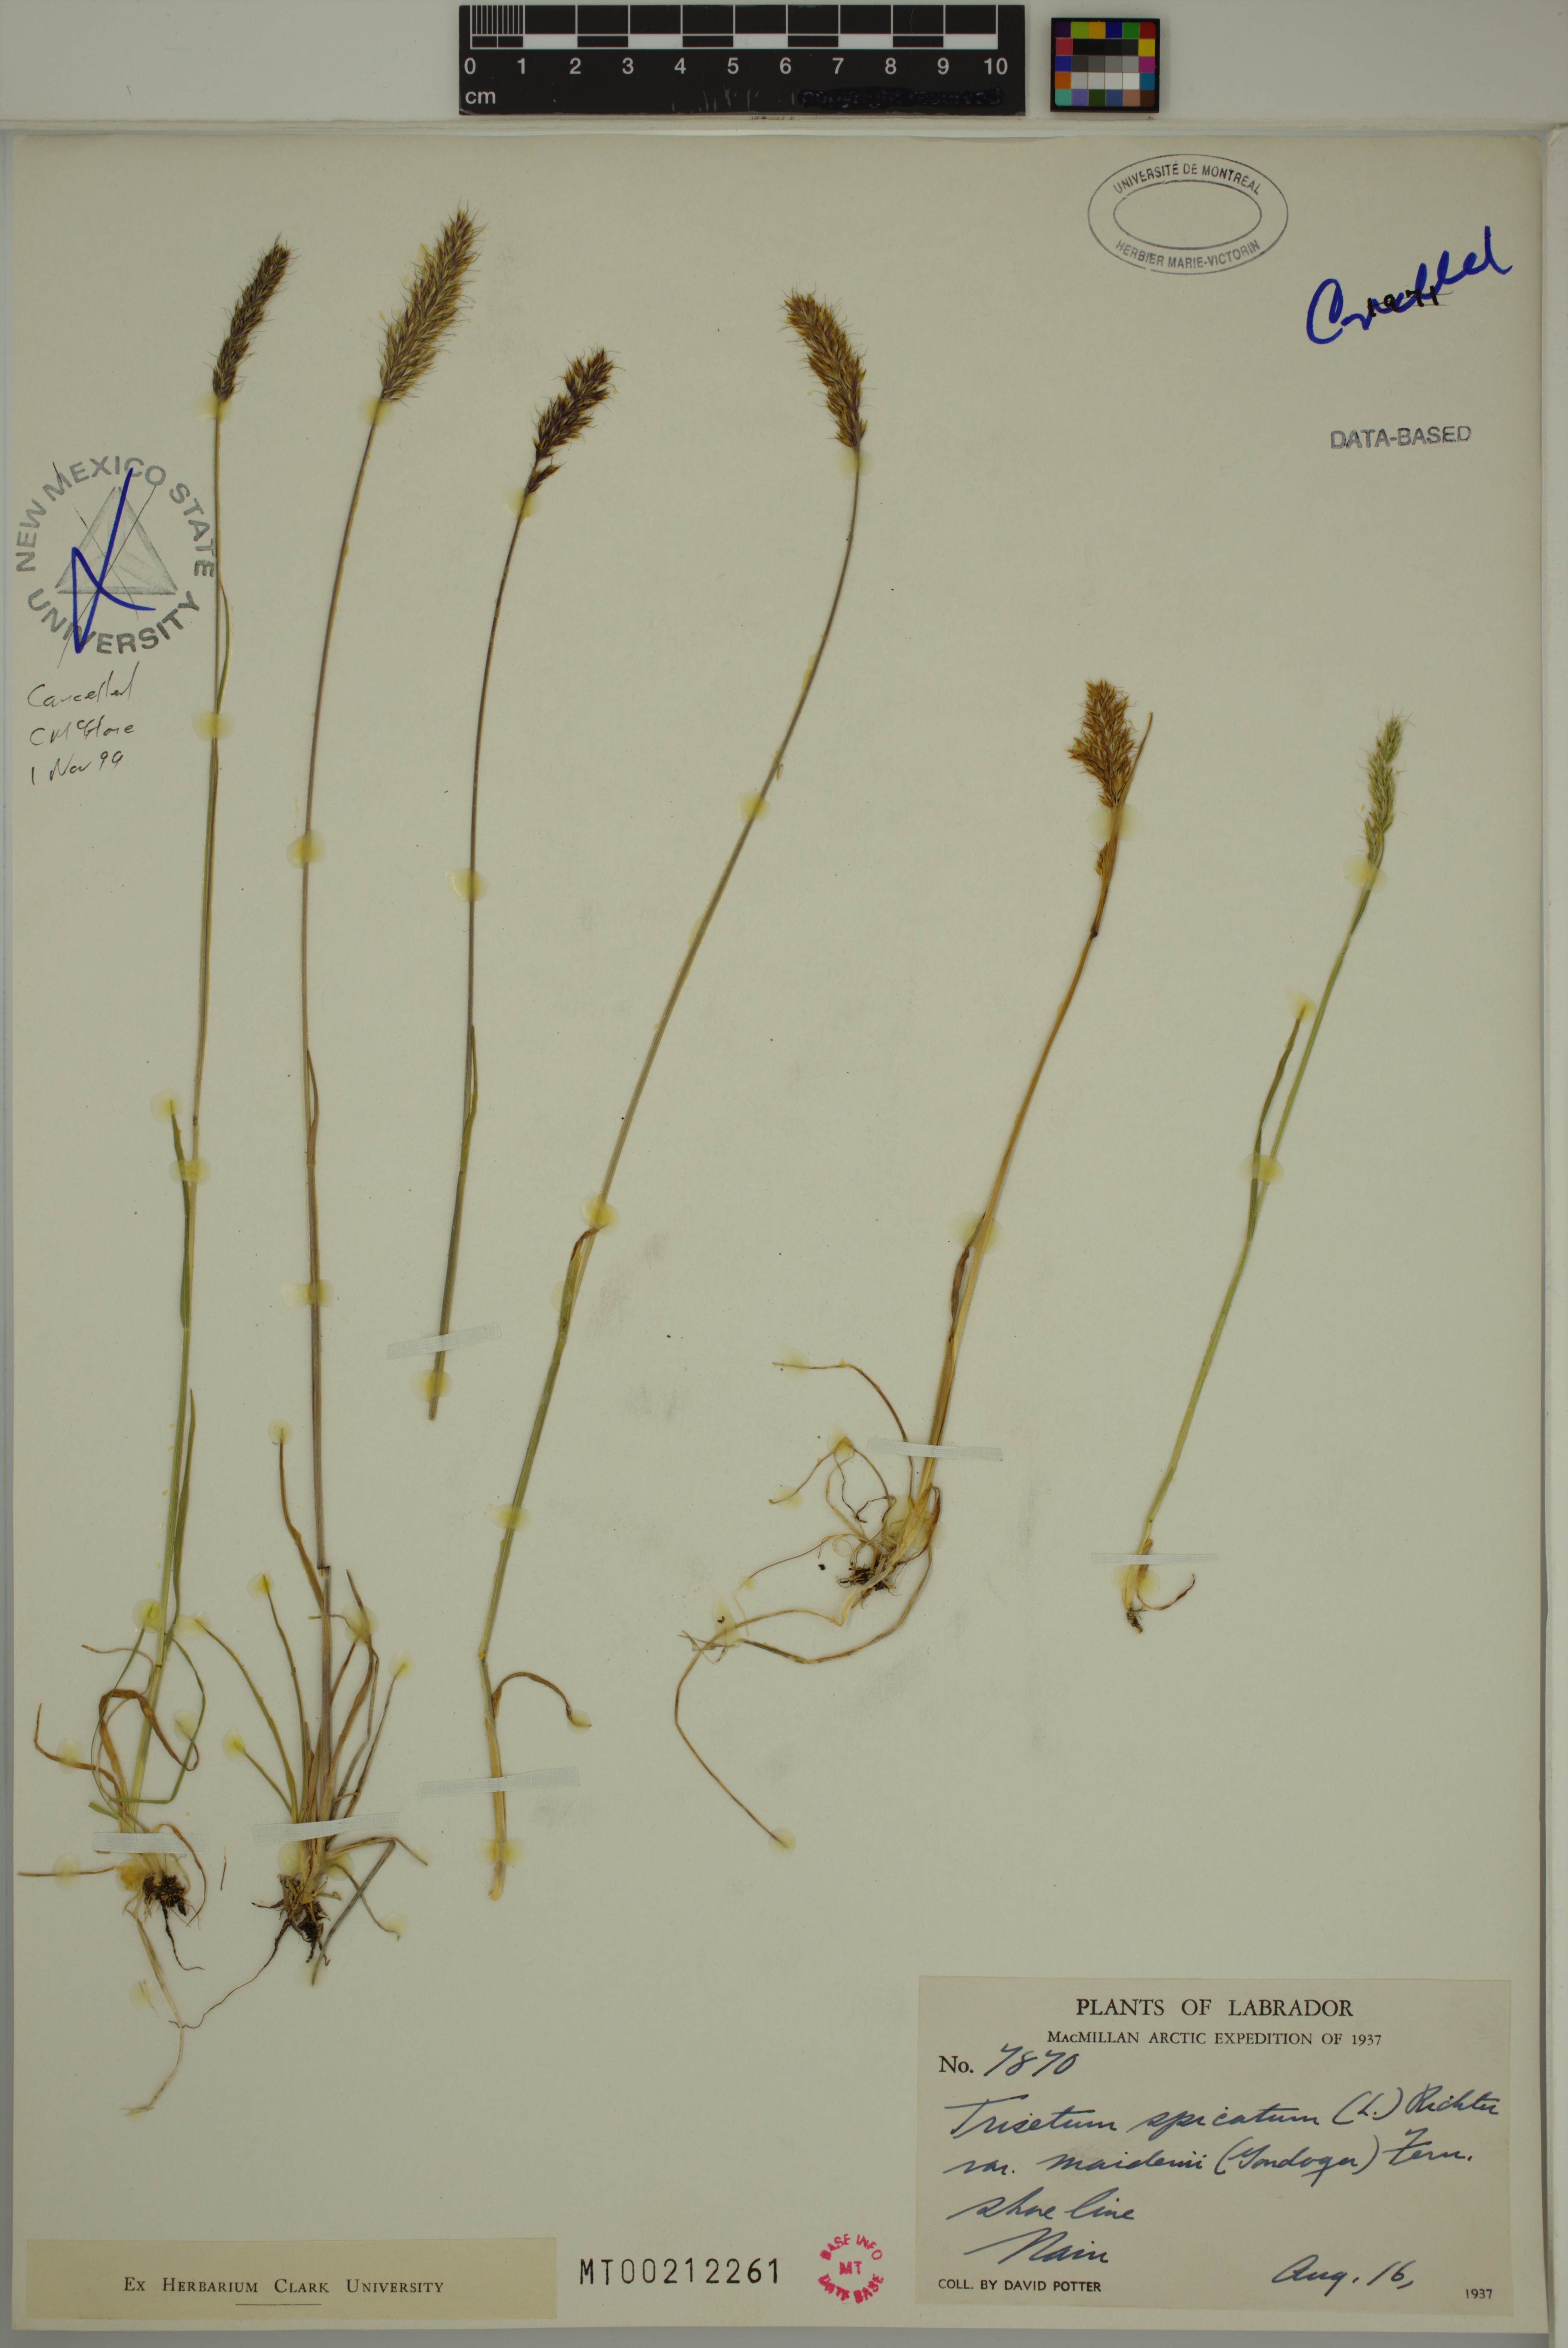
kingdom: Plantae
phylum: Tracheophyta
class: Liliopsida
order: Poales
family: Poaceae
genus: Koeleria
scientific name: Koeleria spicata
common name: Mountain trisetum
